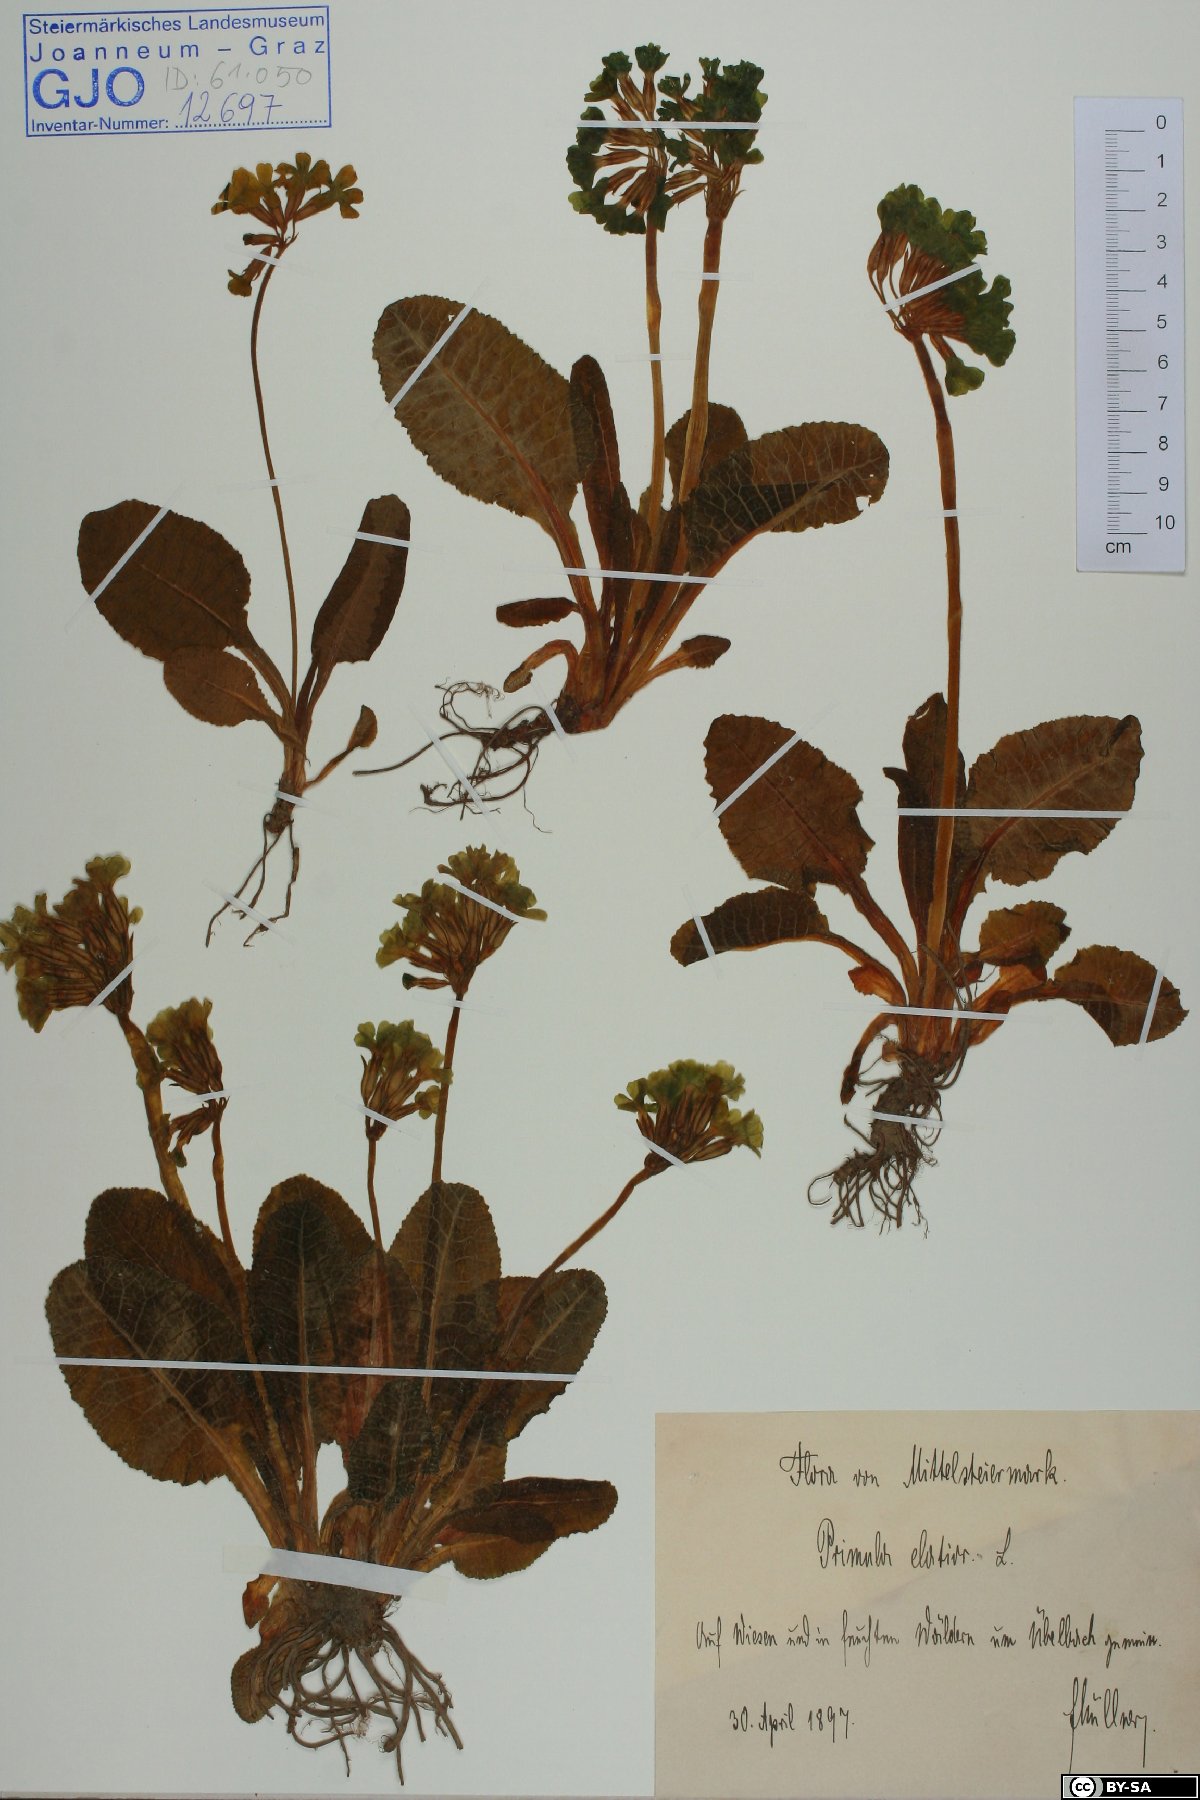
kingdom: Plantae
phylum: Tracheophyta
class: Magnoliopsida
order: Ericales
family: Primulaceae
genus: Primula
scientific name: Primula elatior
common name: Oxlip
